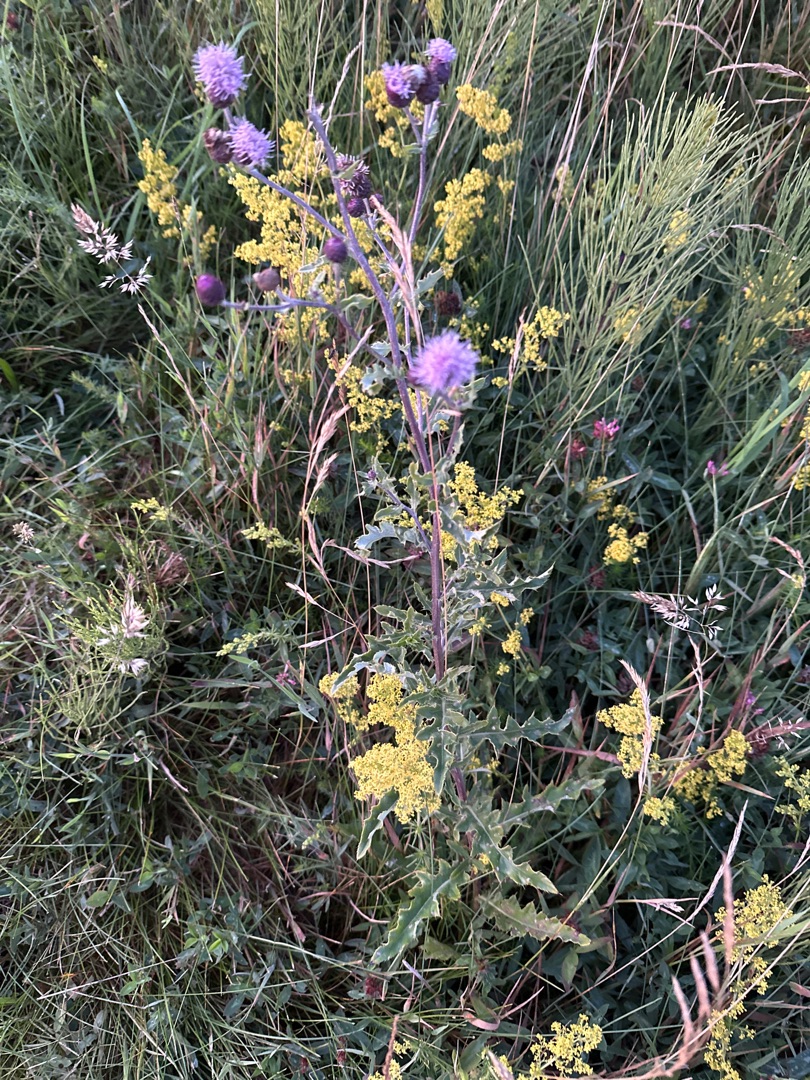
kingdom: Plantae
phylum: Tracheophyta
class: Magnoliopsida
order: Asterales
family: Asteraceae
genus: Cirsium
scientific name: Cirsium arvense
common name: Ager-tidsel
